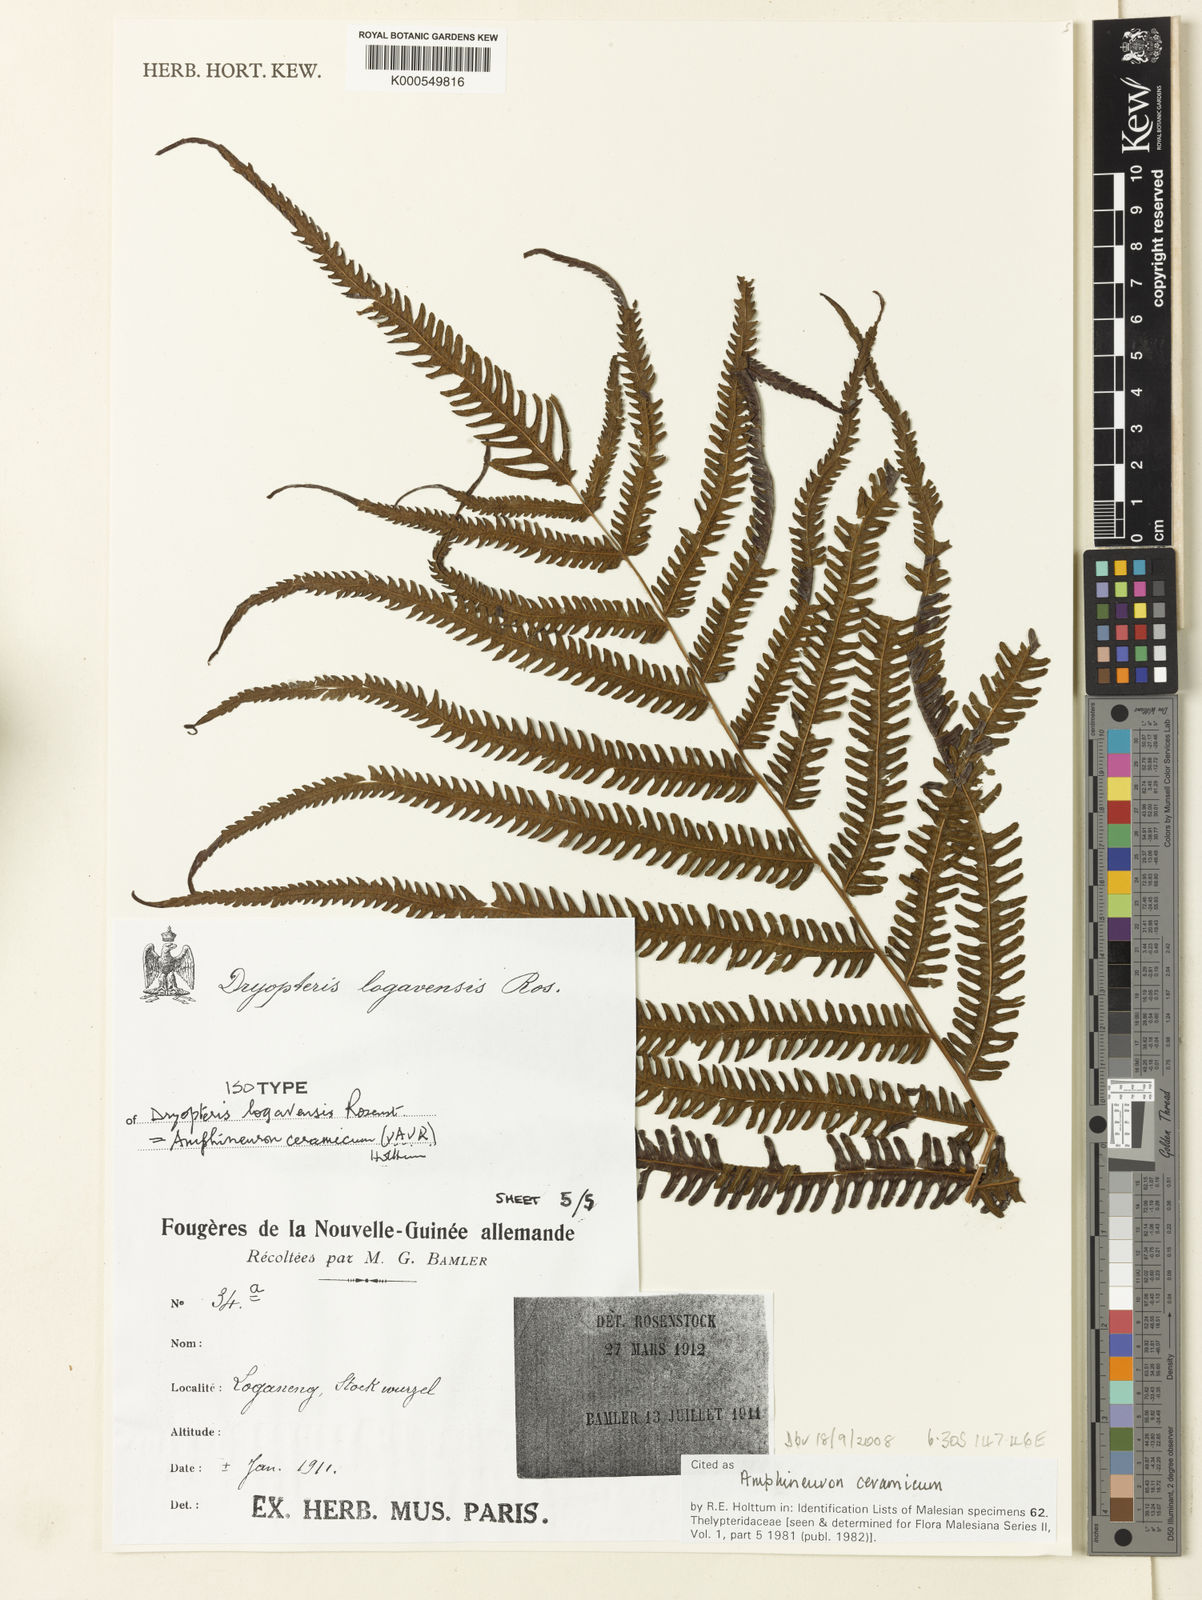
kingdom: Plantae
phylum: Tracheophyta
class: Polypodiopsida
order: Polypodiales
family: Thelypteridaceae
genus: Mesopteris
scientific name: Mesopteris ceramica
